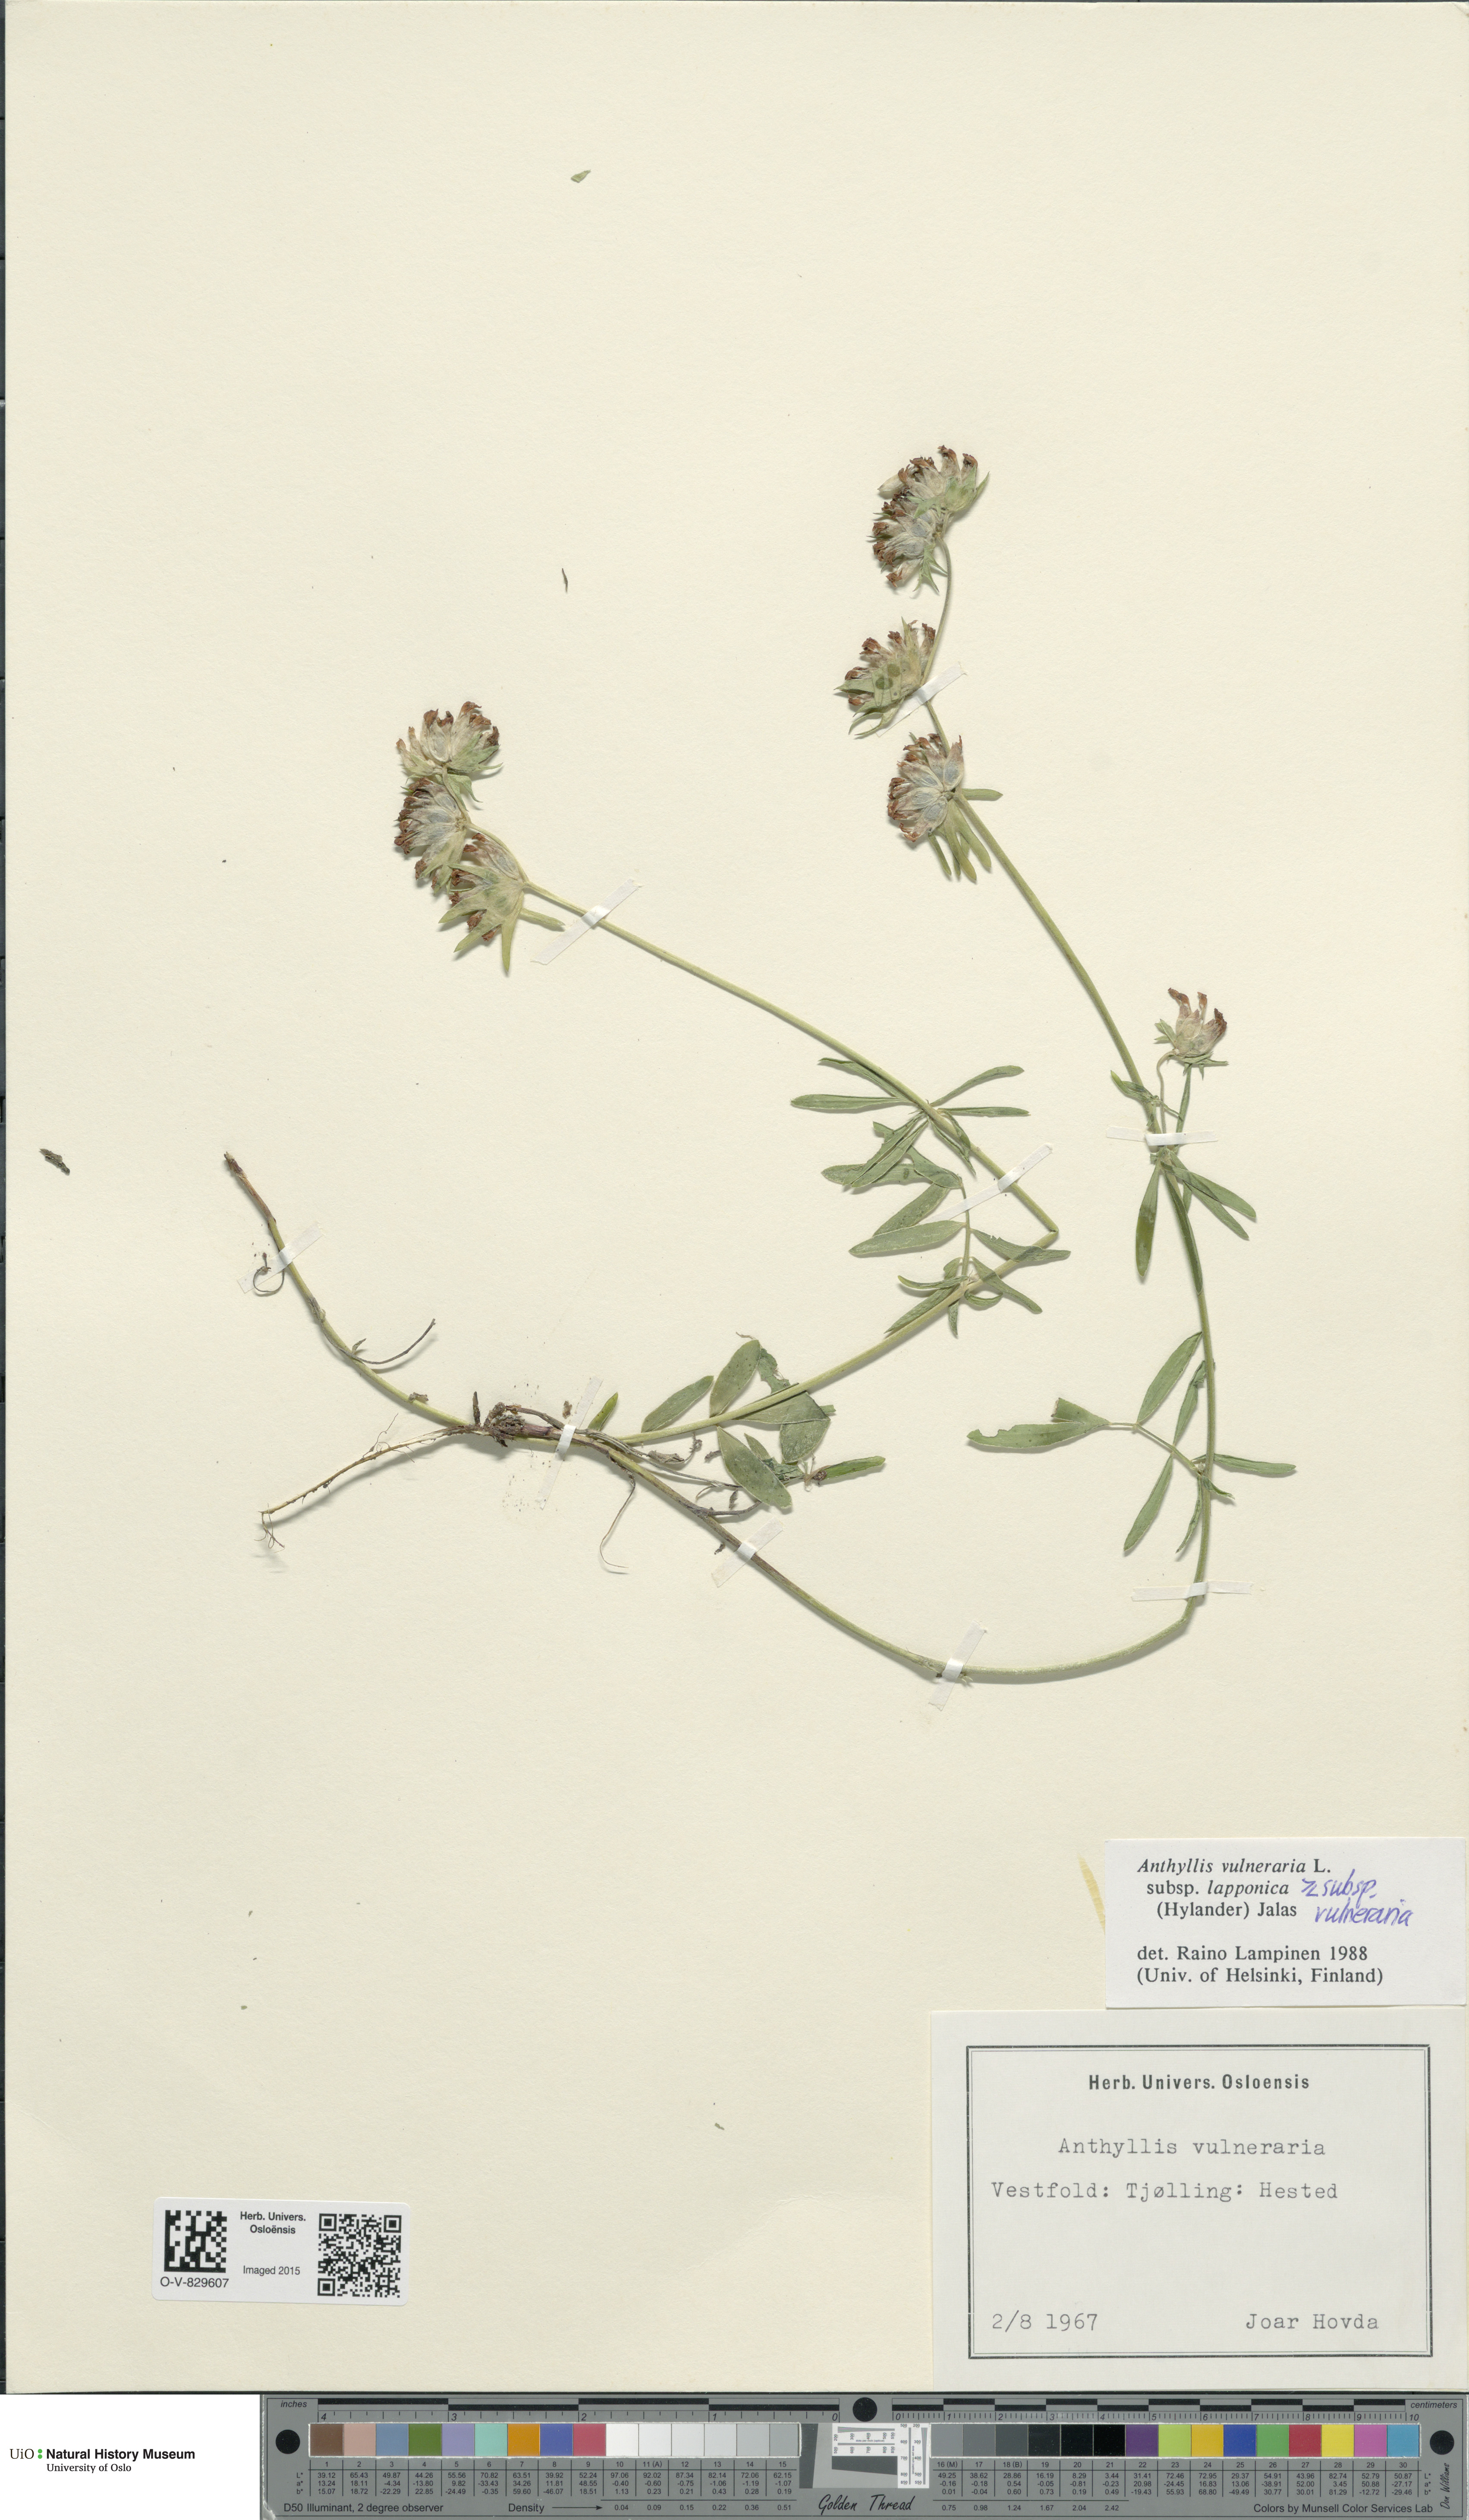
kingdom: Plantae
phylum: Tracheophyta
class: Magnoliopsida
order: Fabales
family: Fabaceae
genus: Anthyllis
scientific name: Anthyllis
